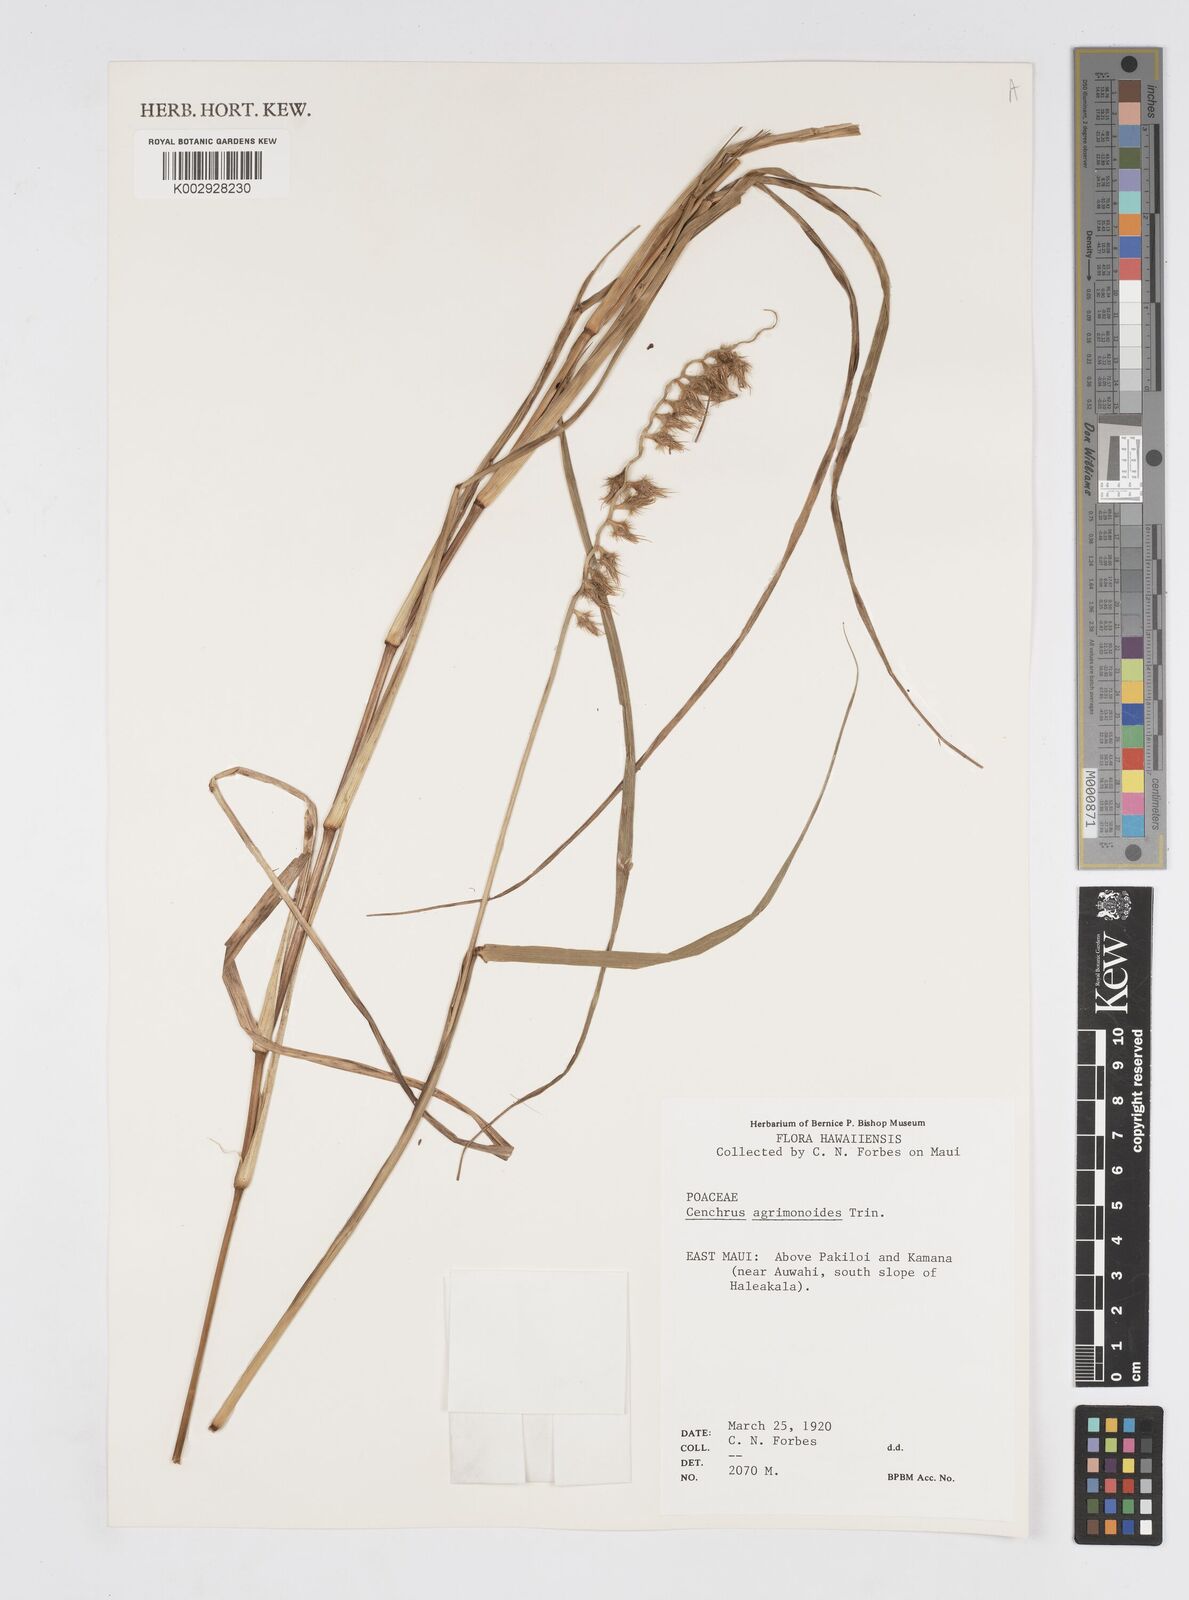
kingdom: Plantae
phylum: Tracheophyta
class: Liliopsida
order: Poales
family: Poaceae
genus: Cenchrus
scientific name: Cenchrus agrimonioides
